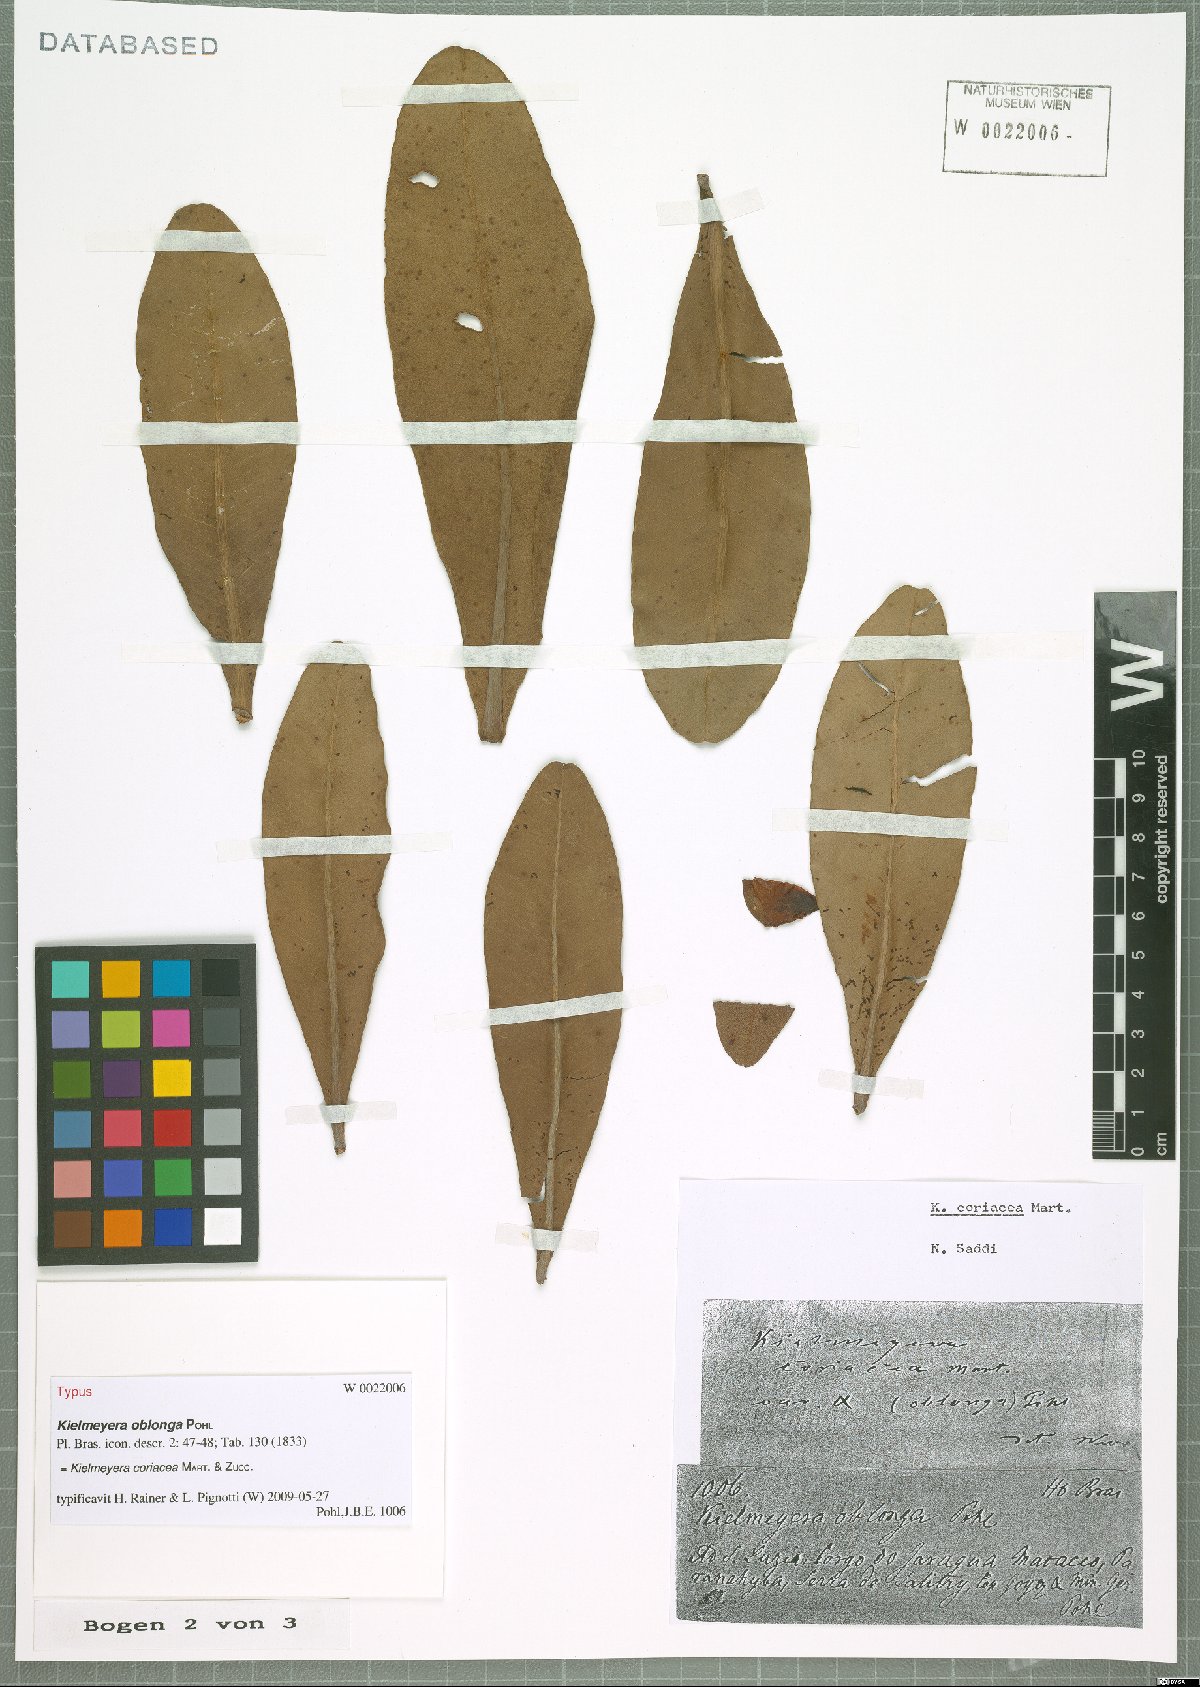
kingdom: Plantae
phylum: Tracheophyta
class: Magnoliopsida
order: Malpighiales
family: Calophyllaceae
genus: Kielmeyera
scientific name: Kielmeyera coriacea
